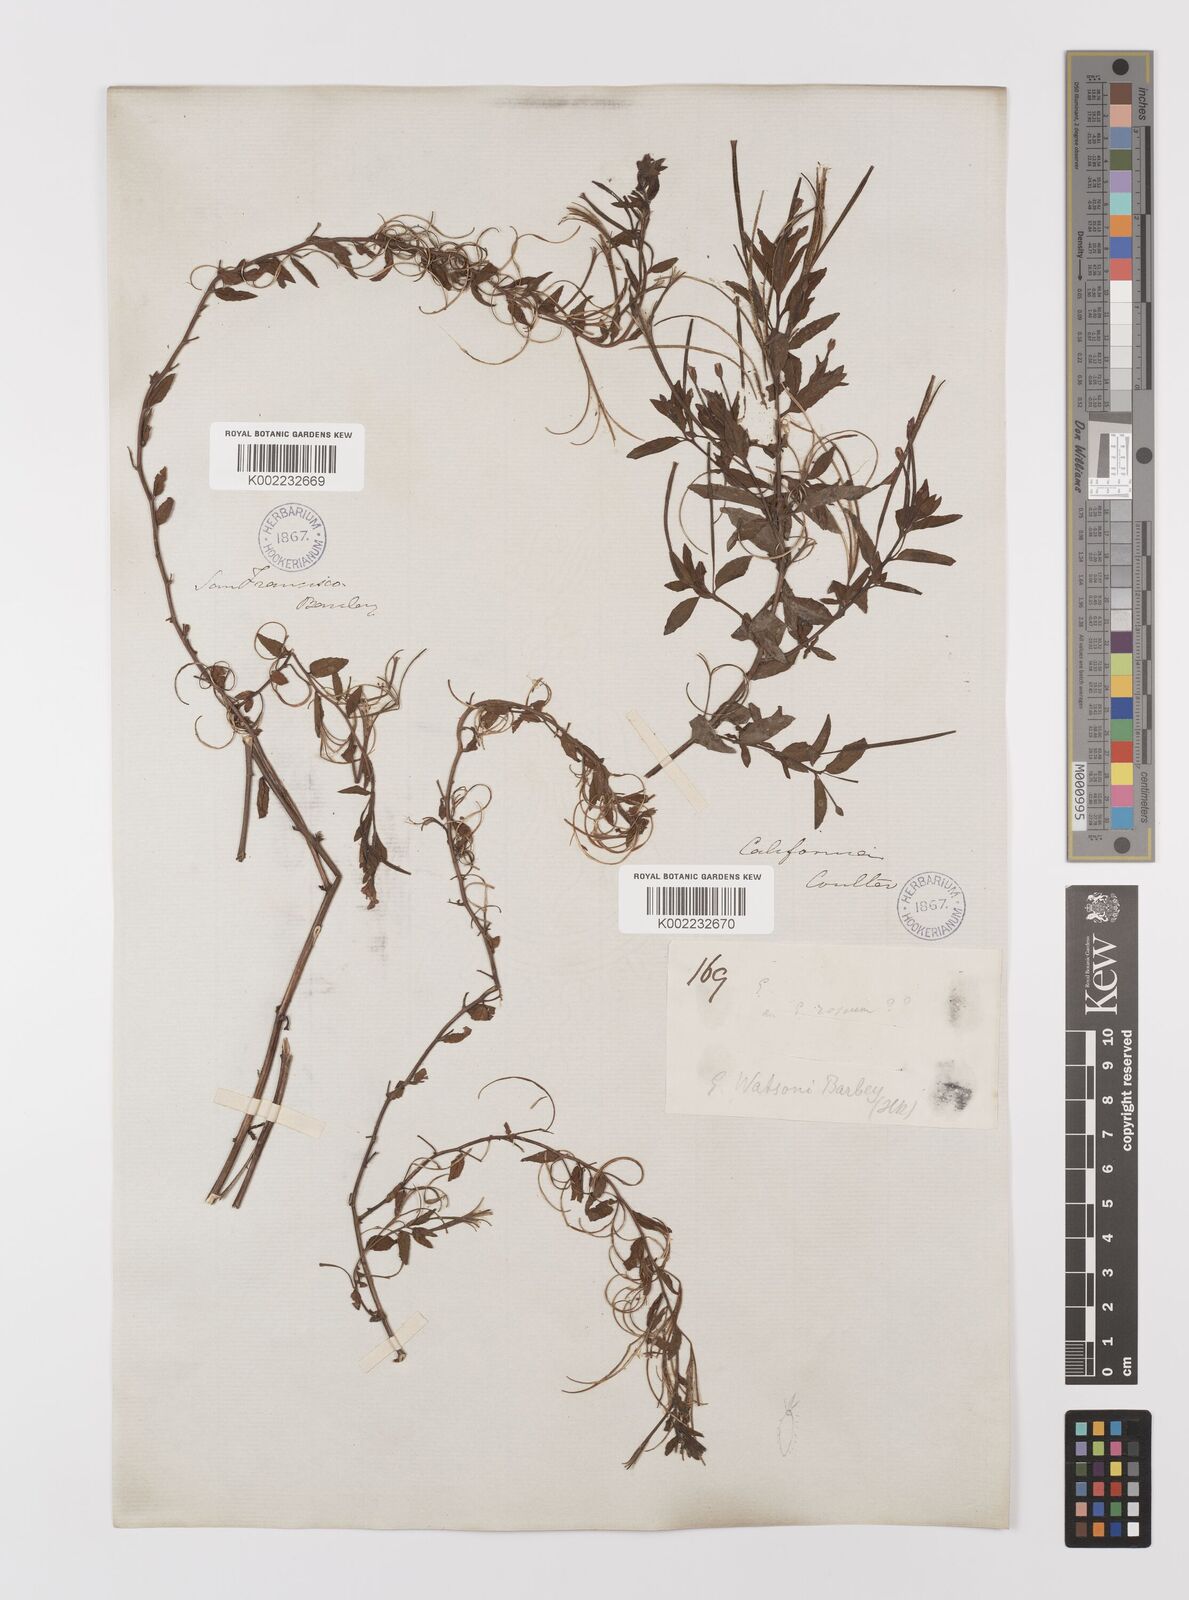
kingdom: Plantae
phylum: Tracheophyta
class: Magnoliopsida
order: Myrtales
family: Onagraceae
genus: Epilobium
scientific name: Epilobium ciliatum
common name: American willowherb
